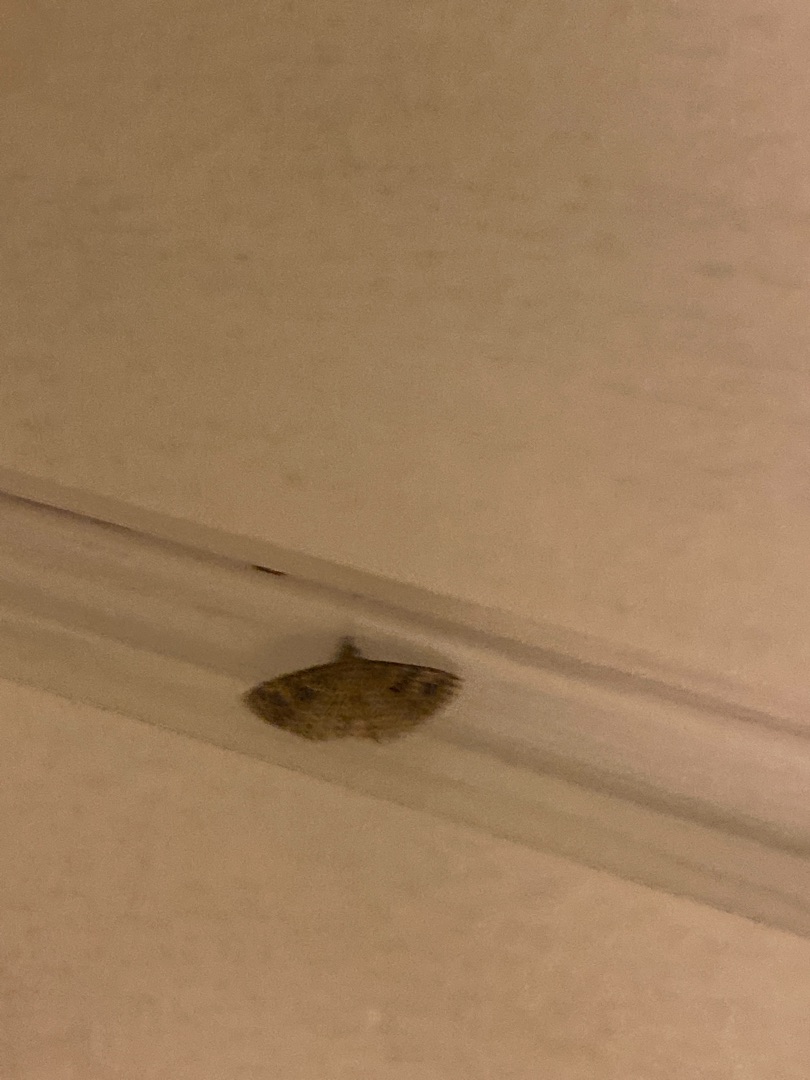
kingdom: Animalia
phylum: Arthropoda
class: Insecta
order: Lepidoptera
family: Alucitidae
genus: Alucita
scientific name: Alucita hexadactyla
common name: Kaprifoliefjermøl
